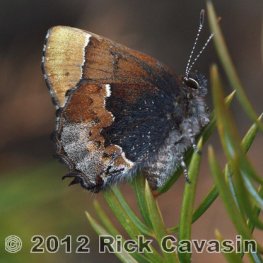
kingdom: Animalia
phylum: Arthropoda
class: Insecta
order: Lepidoptera
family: Lycaenidae
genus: Incisalia
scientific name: Incisalia henrici
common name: Henry's Elfin
